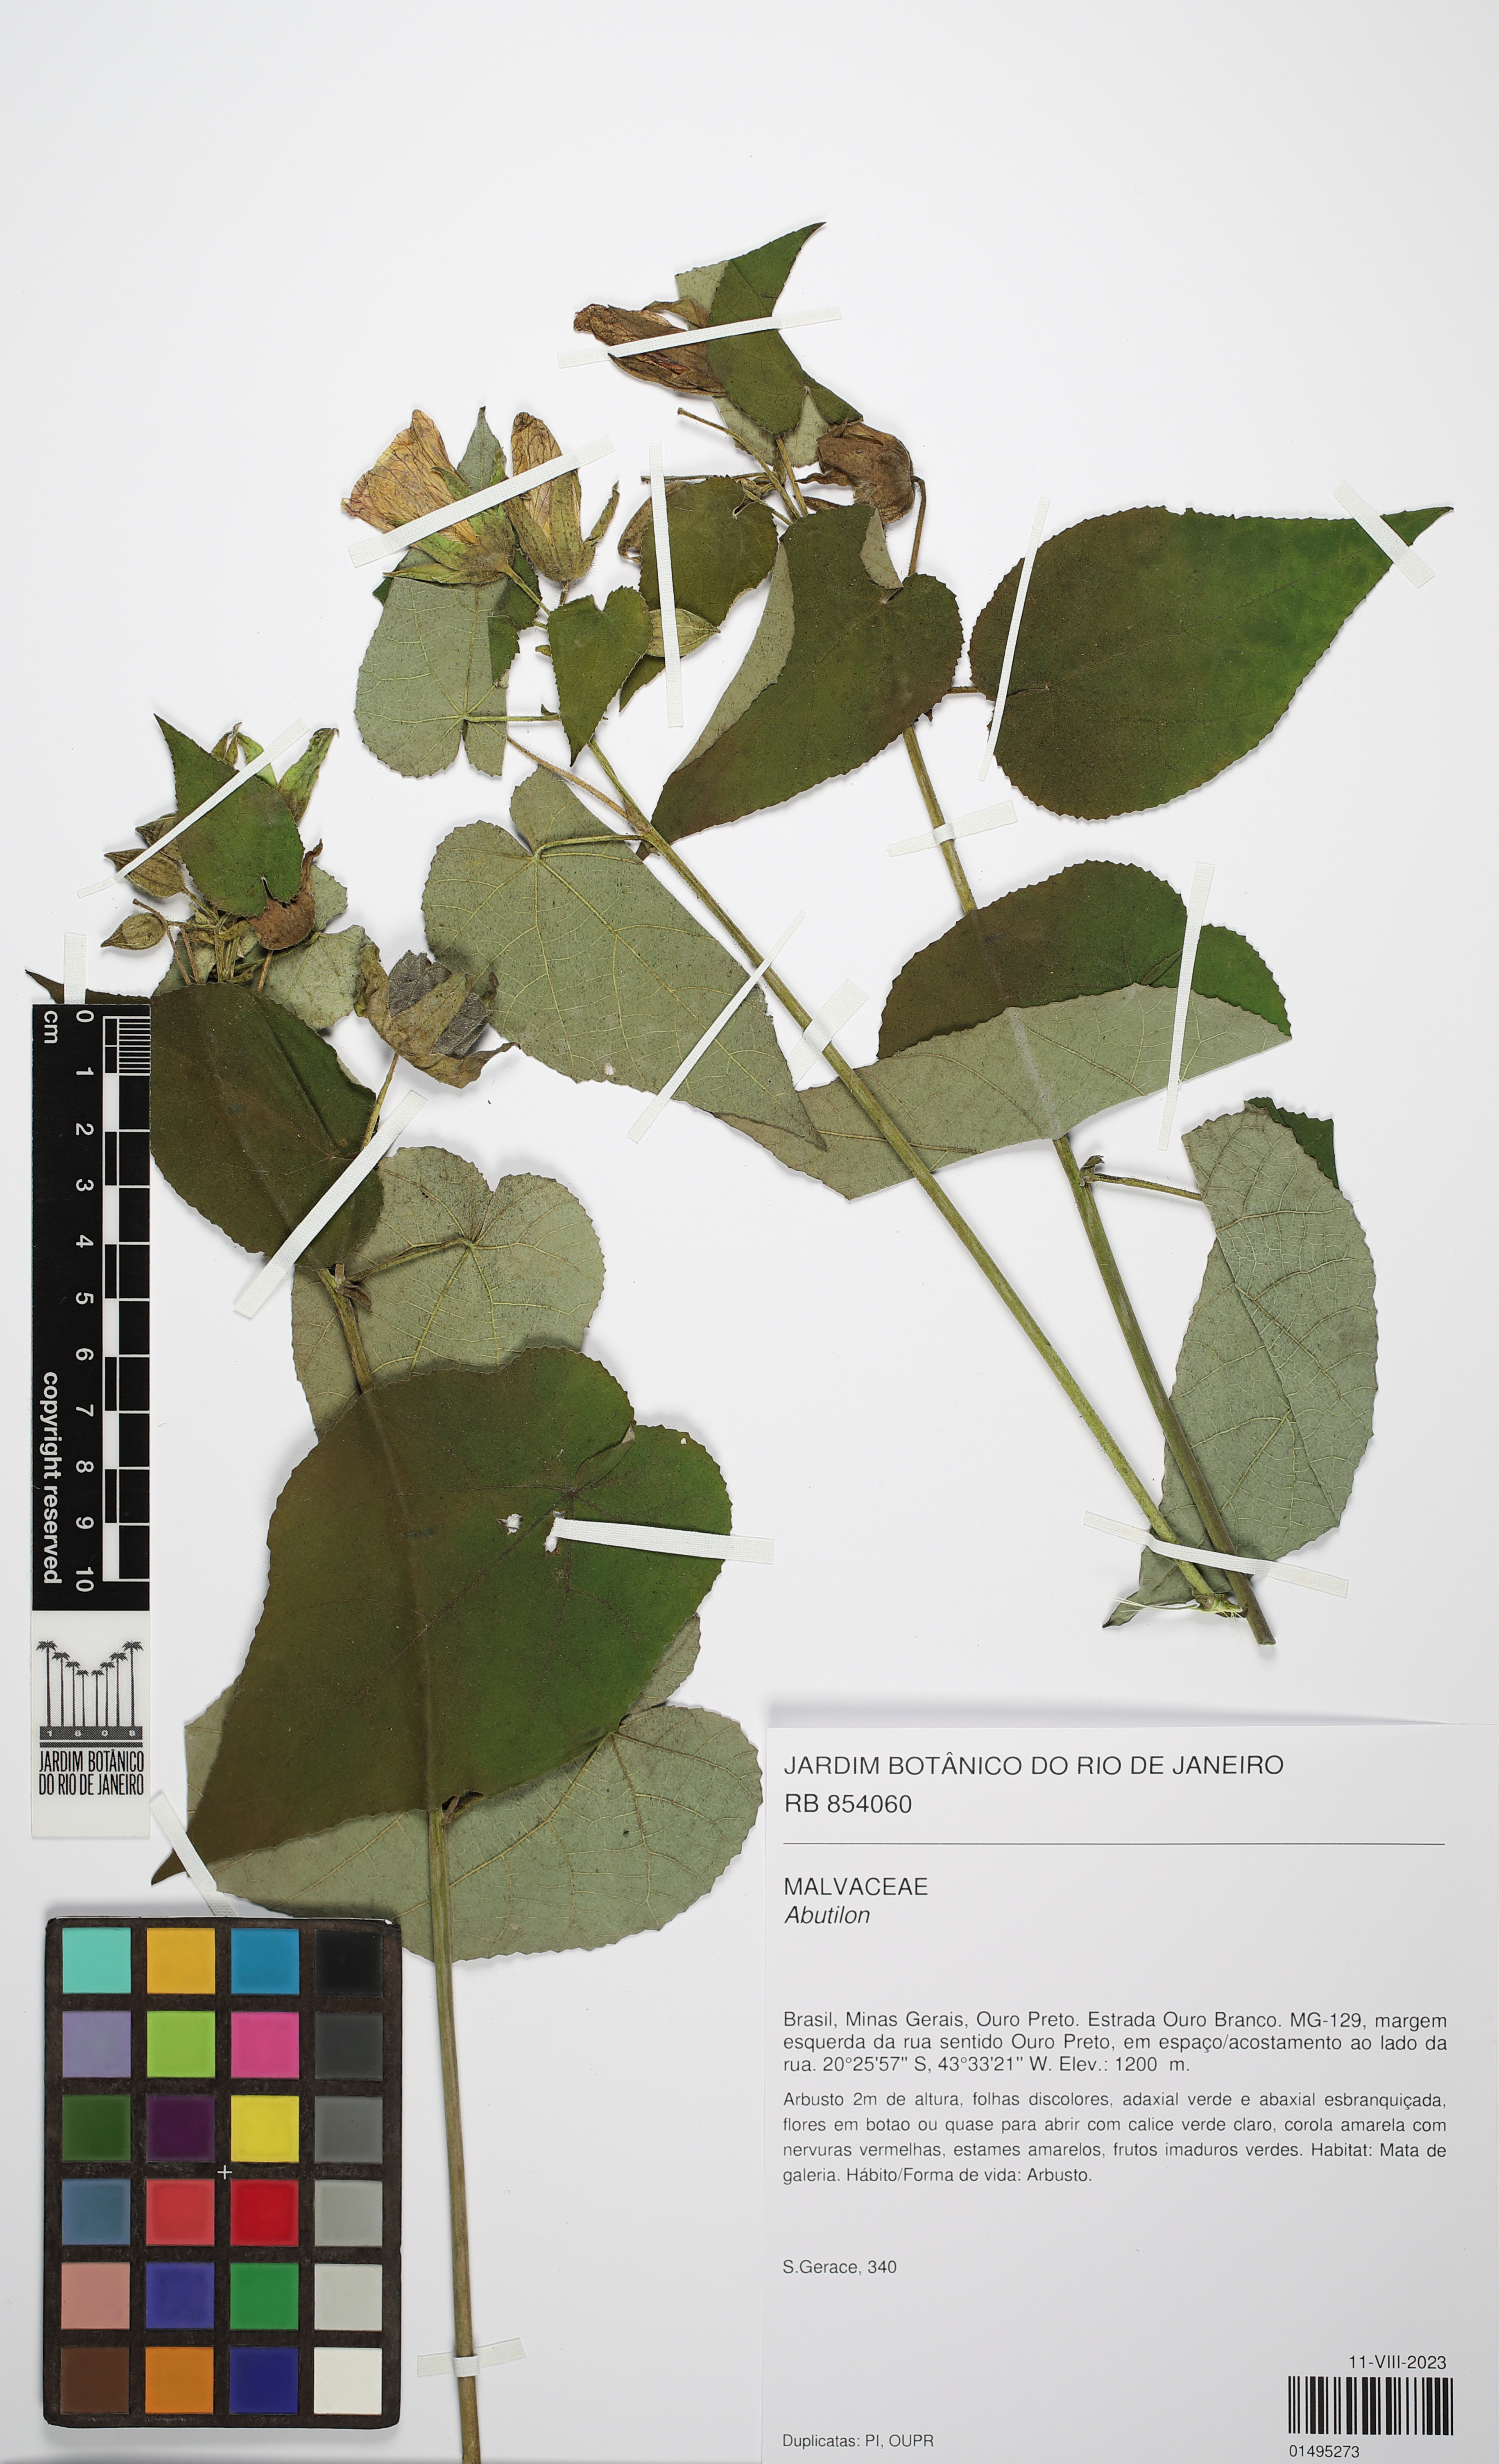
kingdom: Plantae
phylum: Tracheophyta
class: Magnoliopsida
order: Malvales
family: Malvaceae
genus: Abutilon
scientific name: Abutilon
